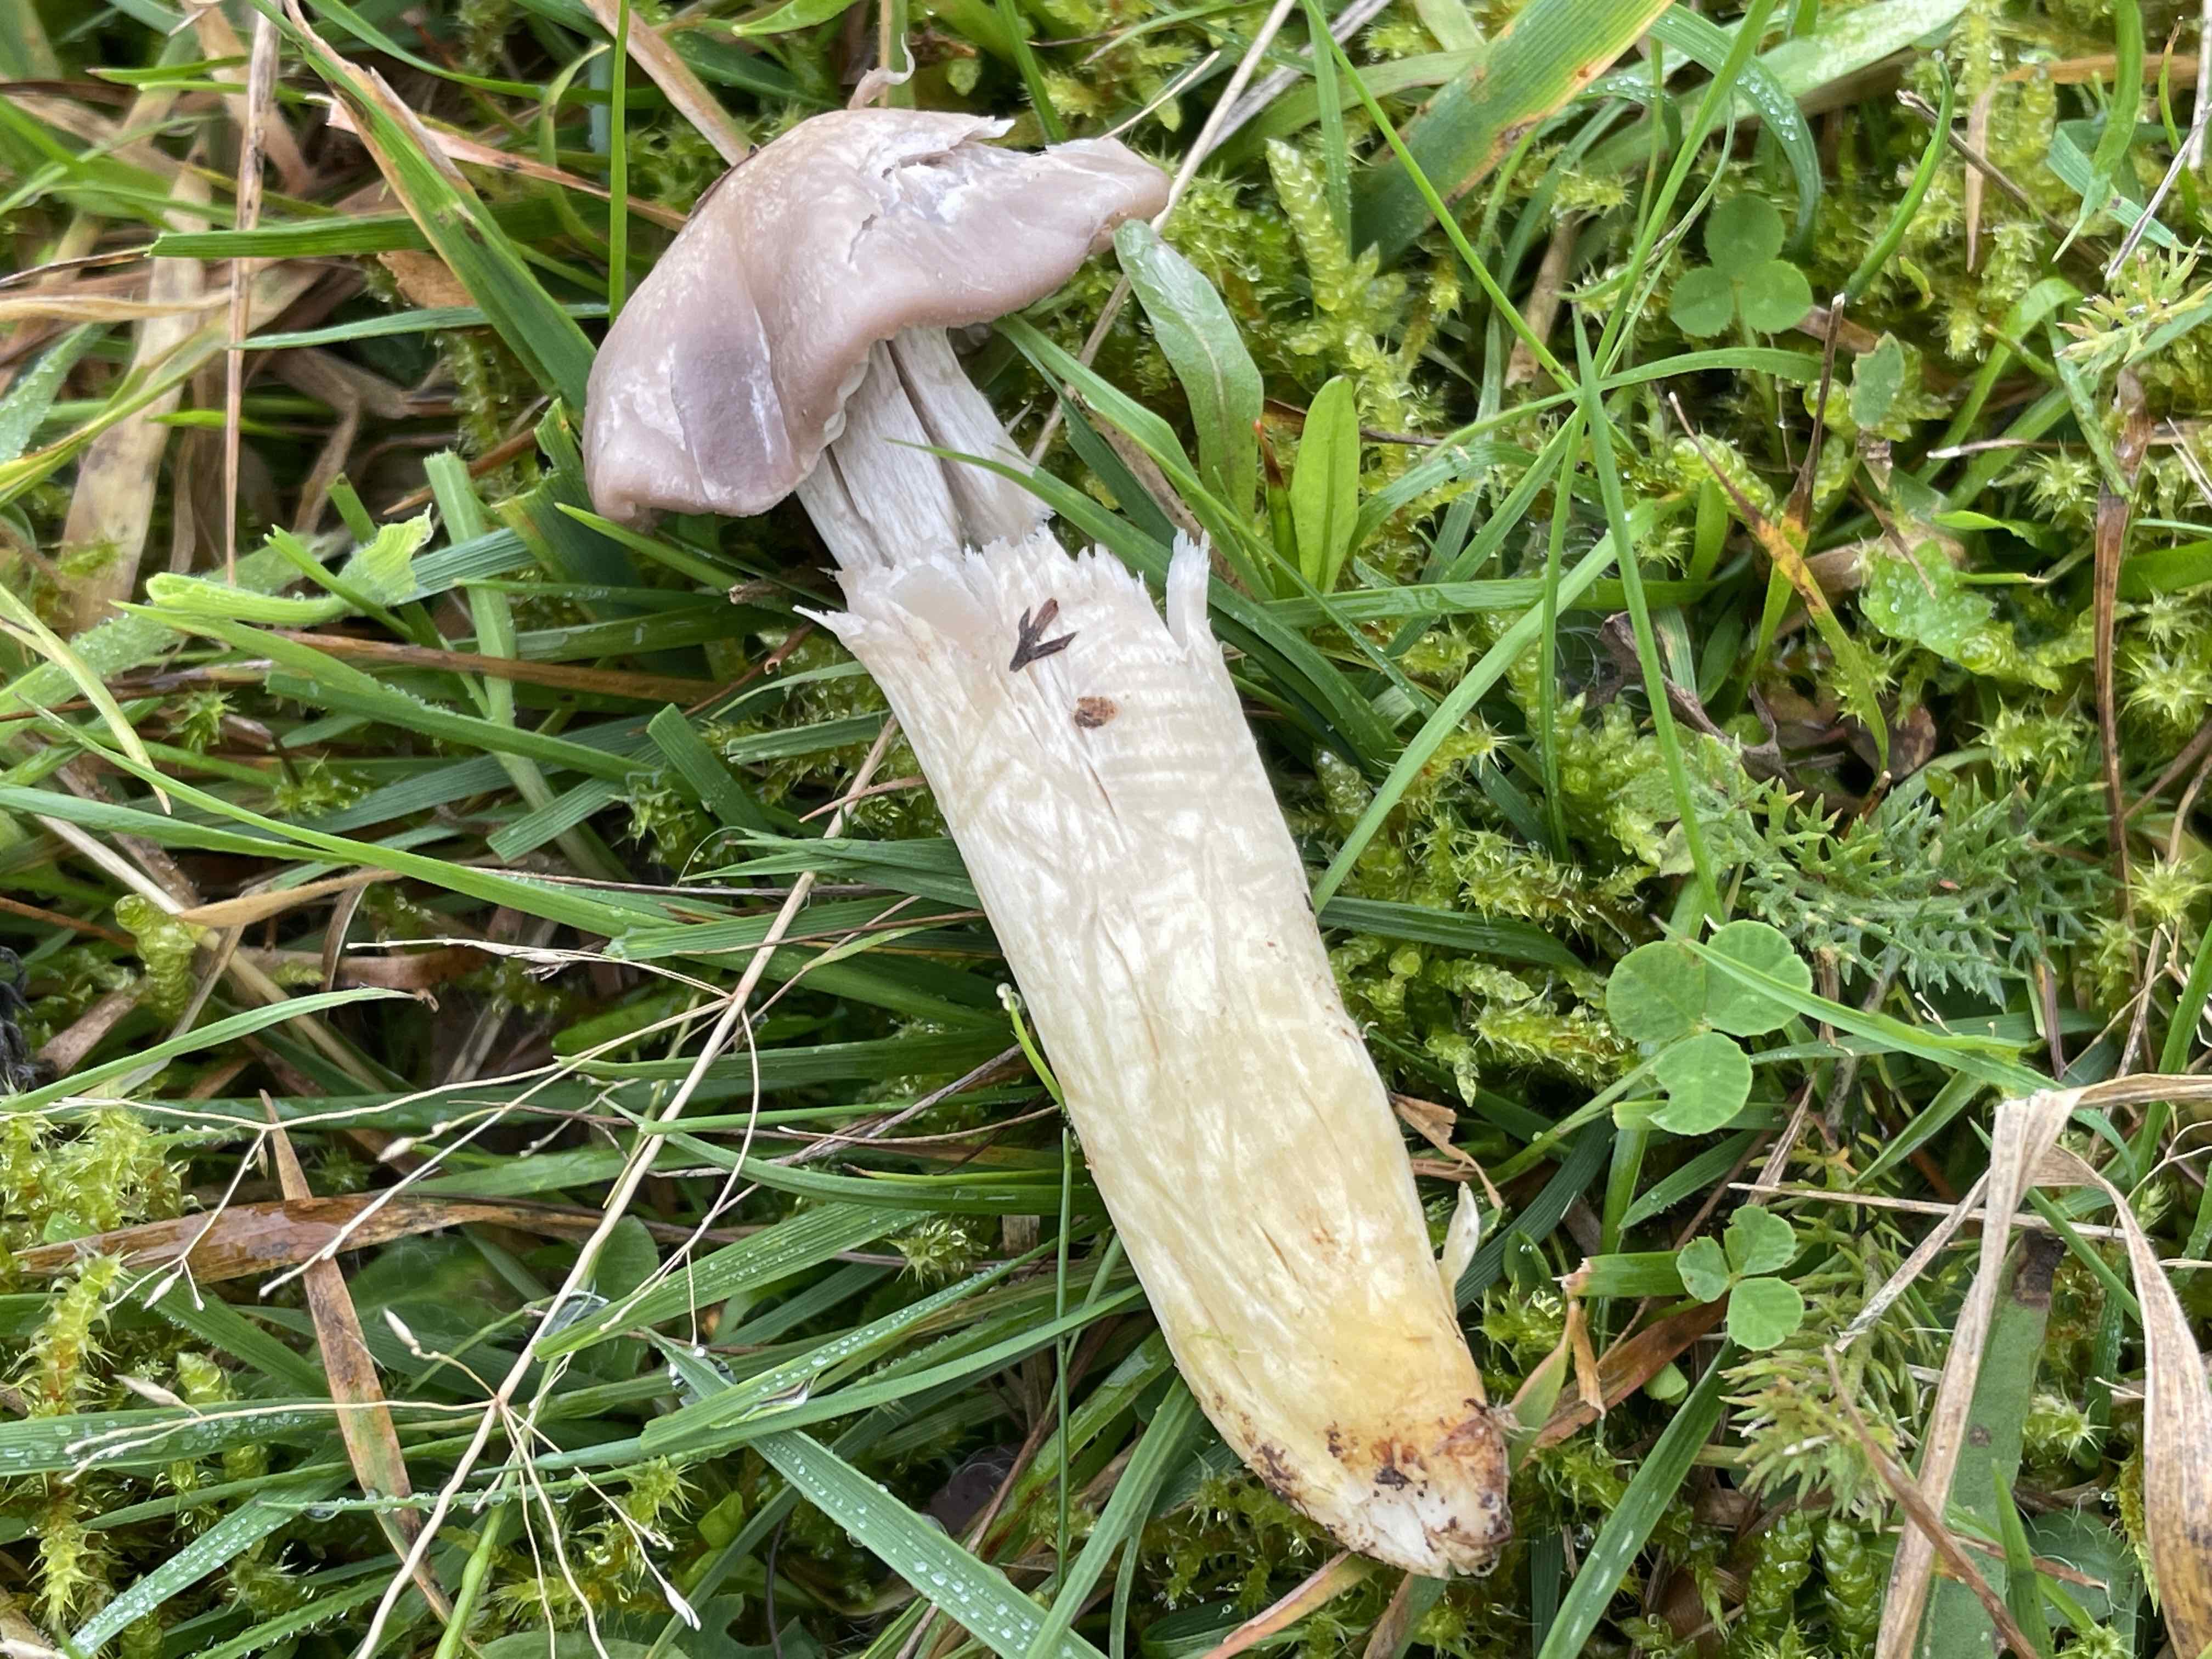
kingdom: Fungi
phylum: Basidiomycota
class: Agaricomycetes
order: Agaricales
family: Hygrophoraceae
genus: Cuphophyllus
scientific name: Cuphophyllus flavipes
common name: gulfodet vokshat
